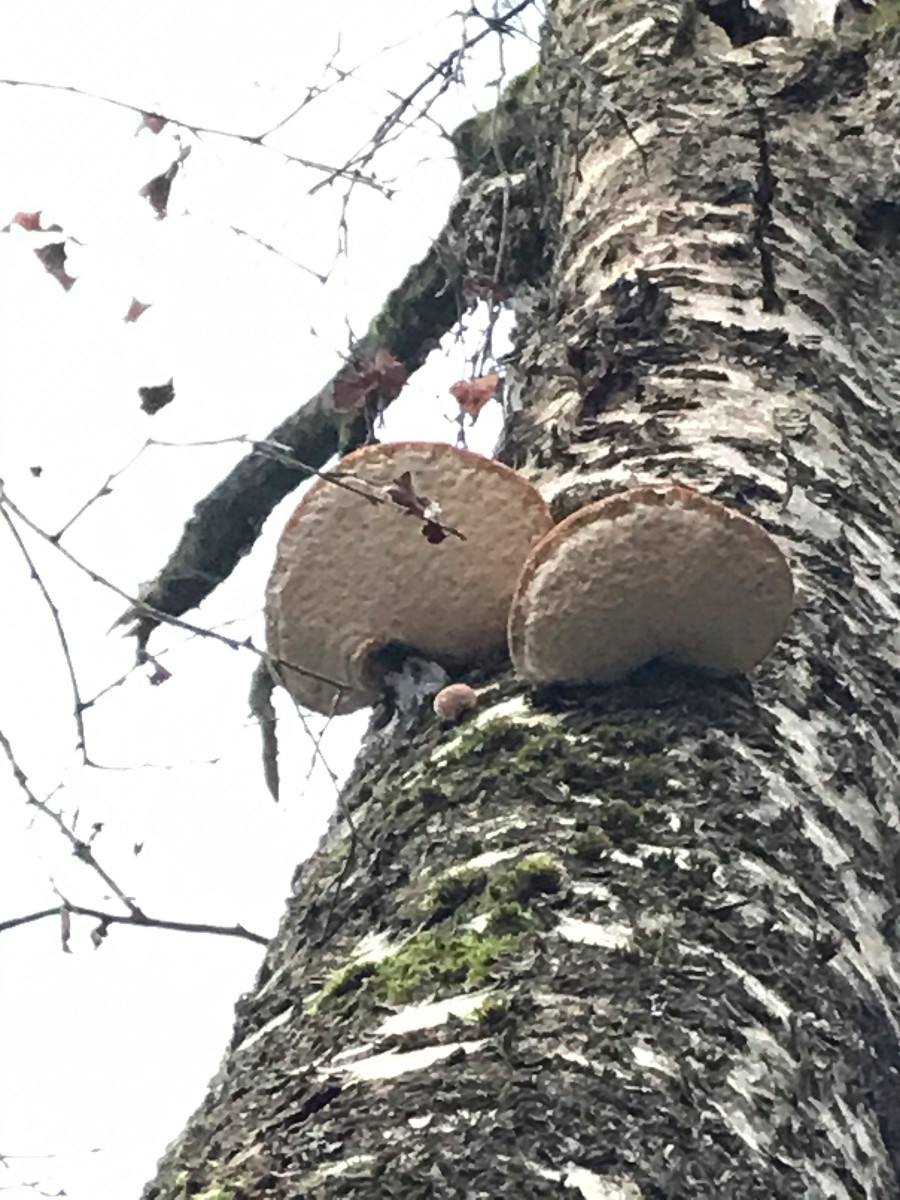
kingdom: Fungi
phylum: Basidiomycota
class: Agaricomycetes
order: Polyporales
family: Fomitopsidaceae
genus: Fomitopsis
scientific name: Fomitopsis betulina
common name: birkeporesvamp
